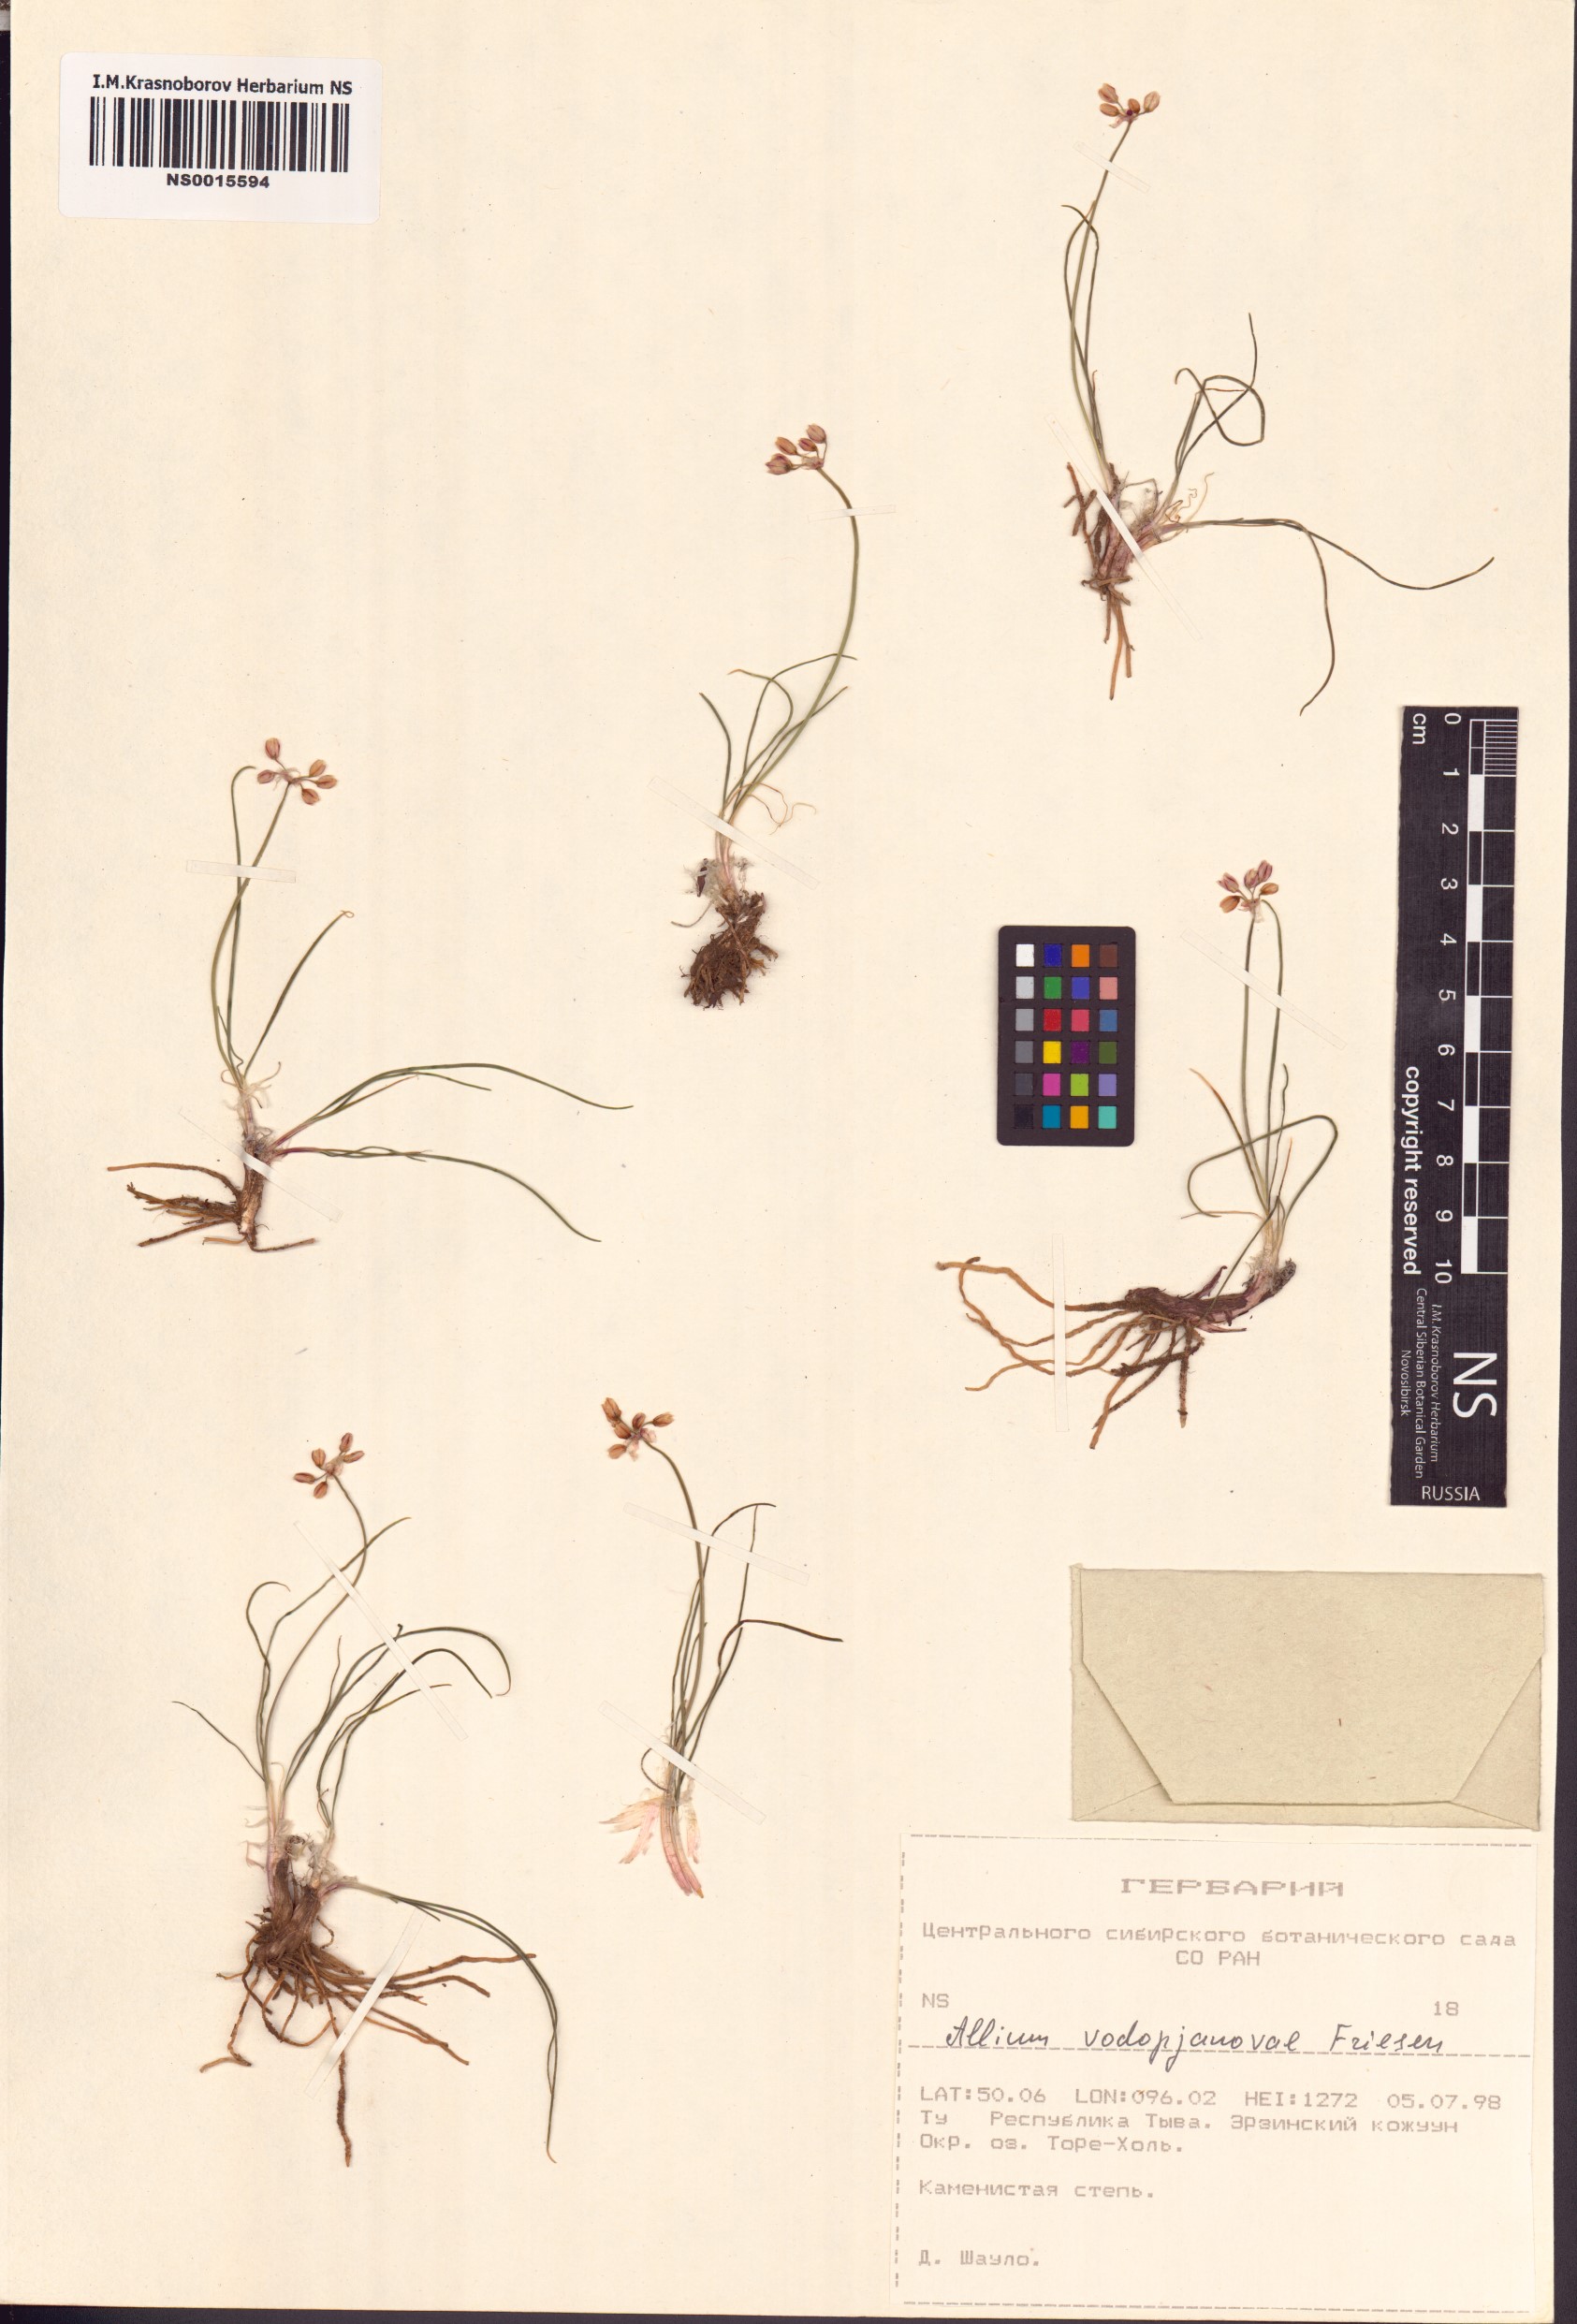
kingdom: Plantae
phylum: Tracheophyta
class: Liliopsida
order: Asparagales
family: Amaryllidaceae
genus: Allium
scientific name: Allium vodopjanovae
